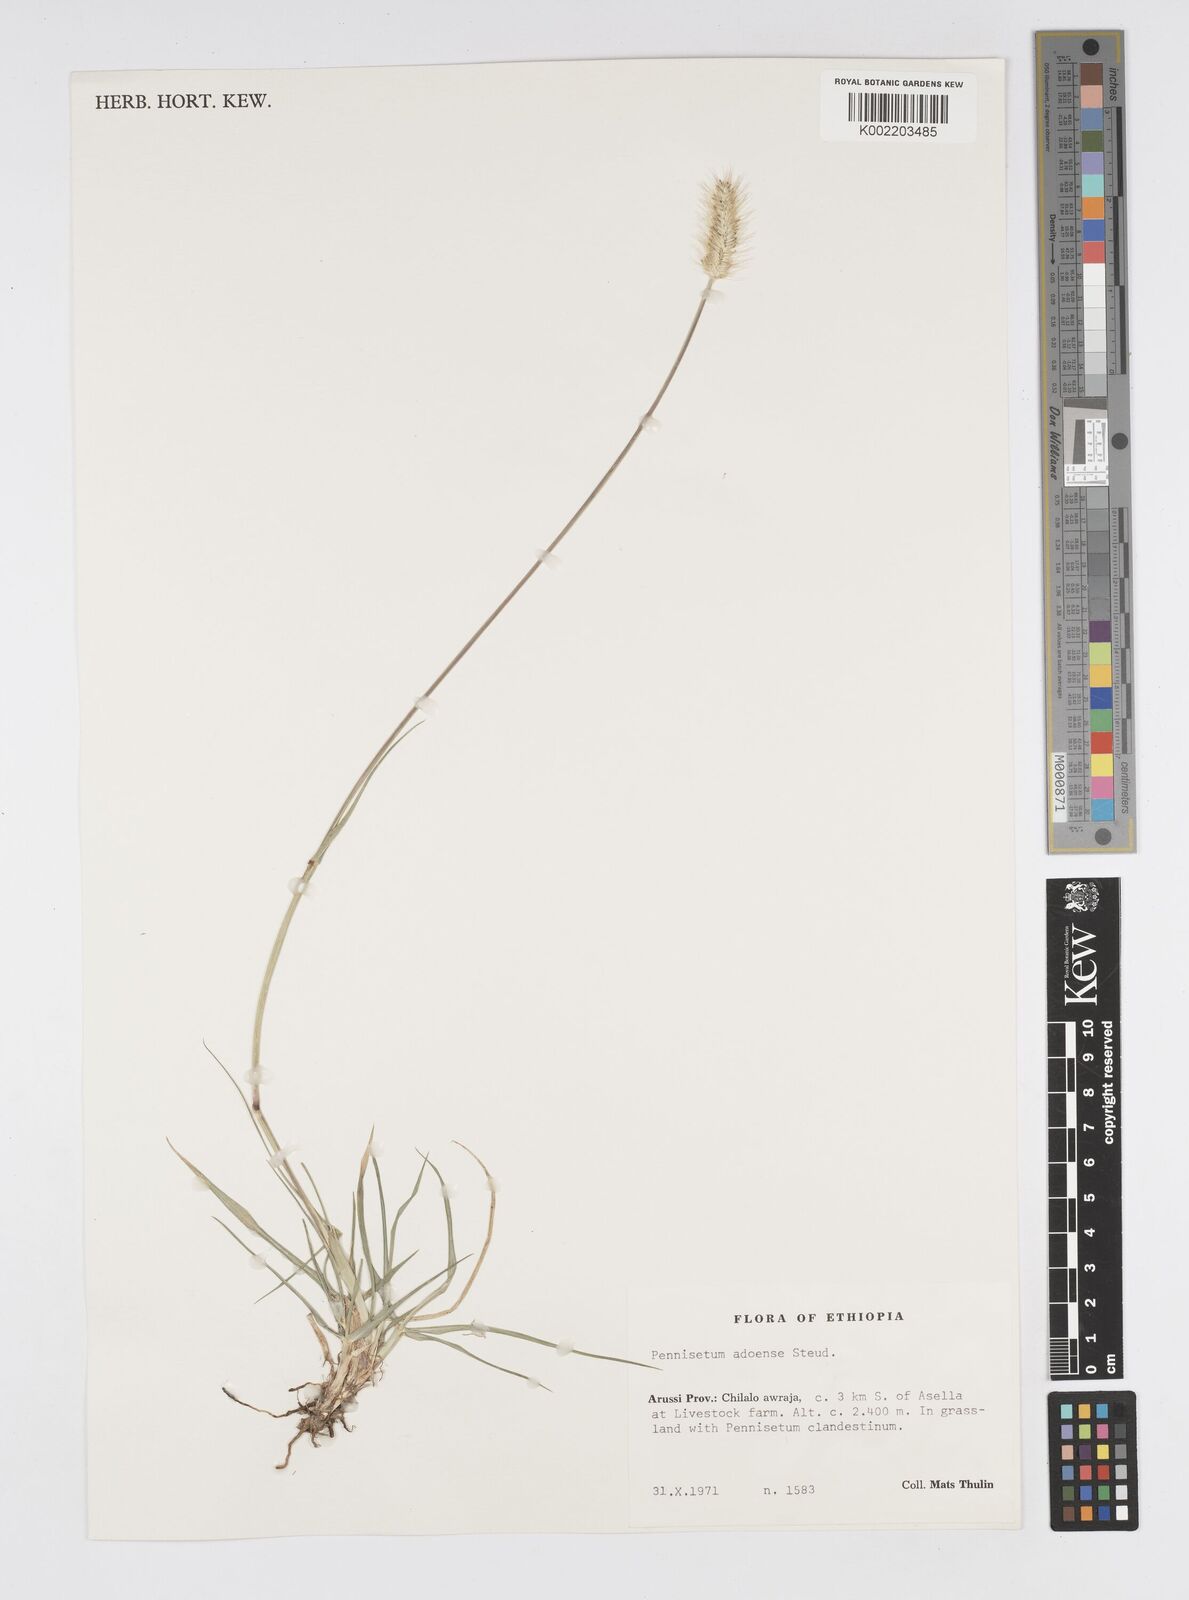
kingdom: Plantae
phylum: Tracheophyta
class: Liliopsida
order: Poales
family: Poaceae
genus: Cenchrus
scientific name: Cenchrus geniculatus
